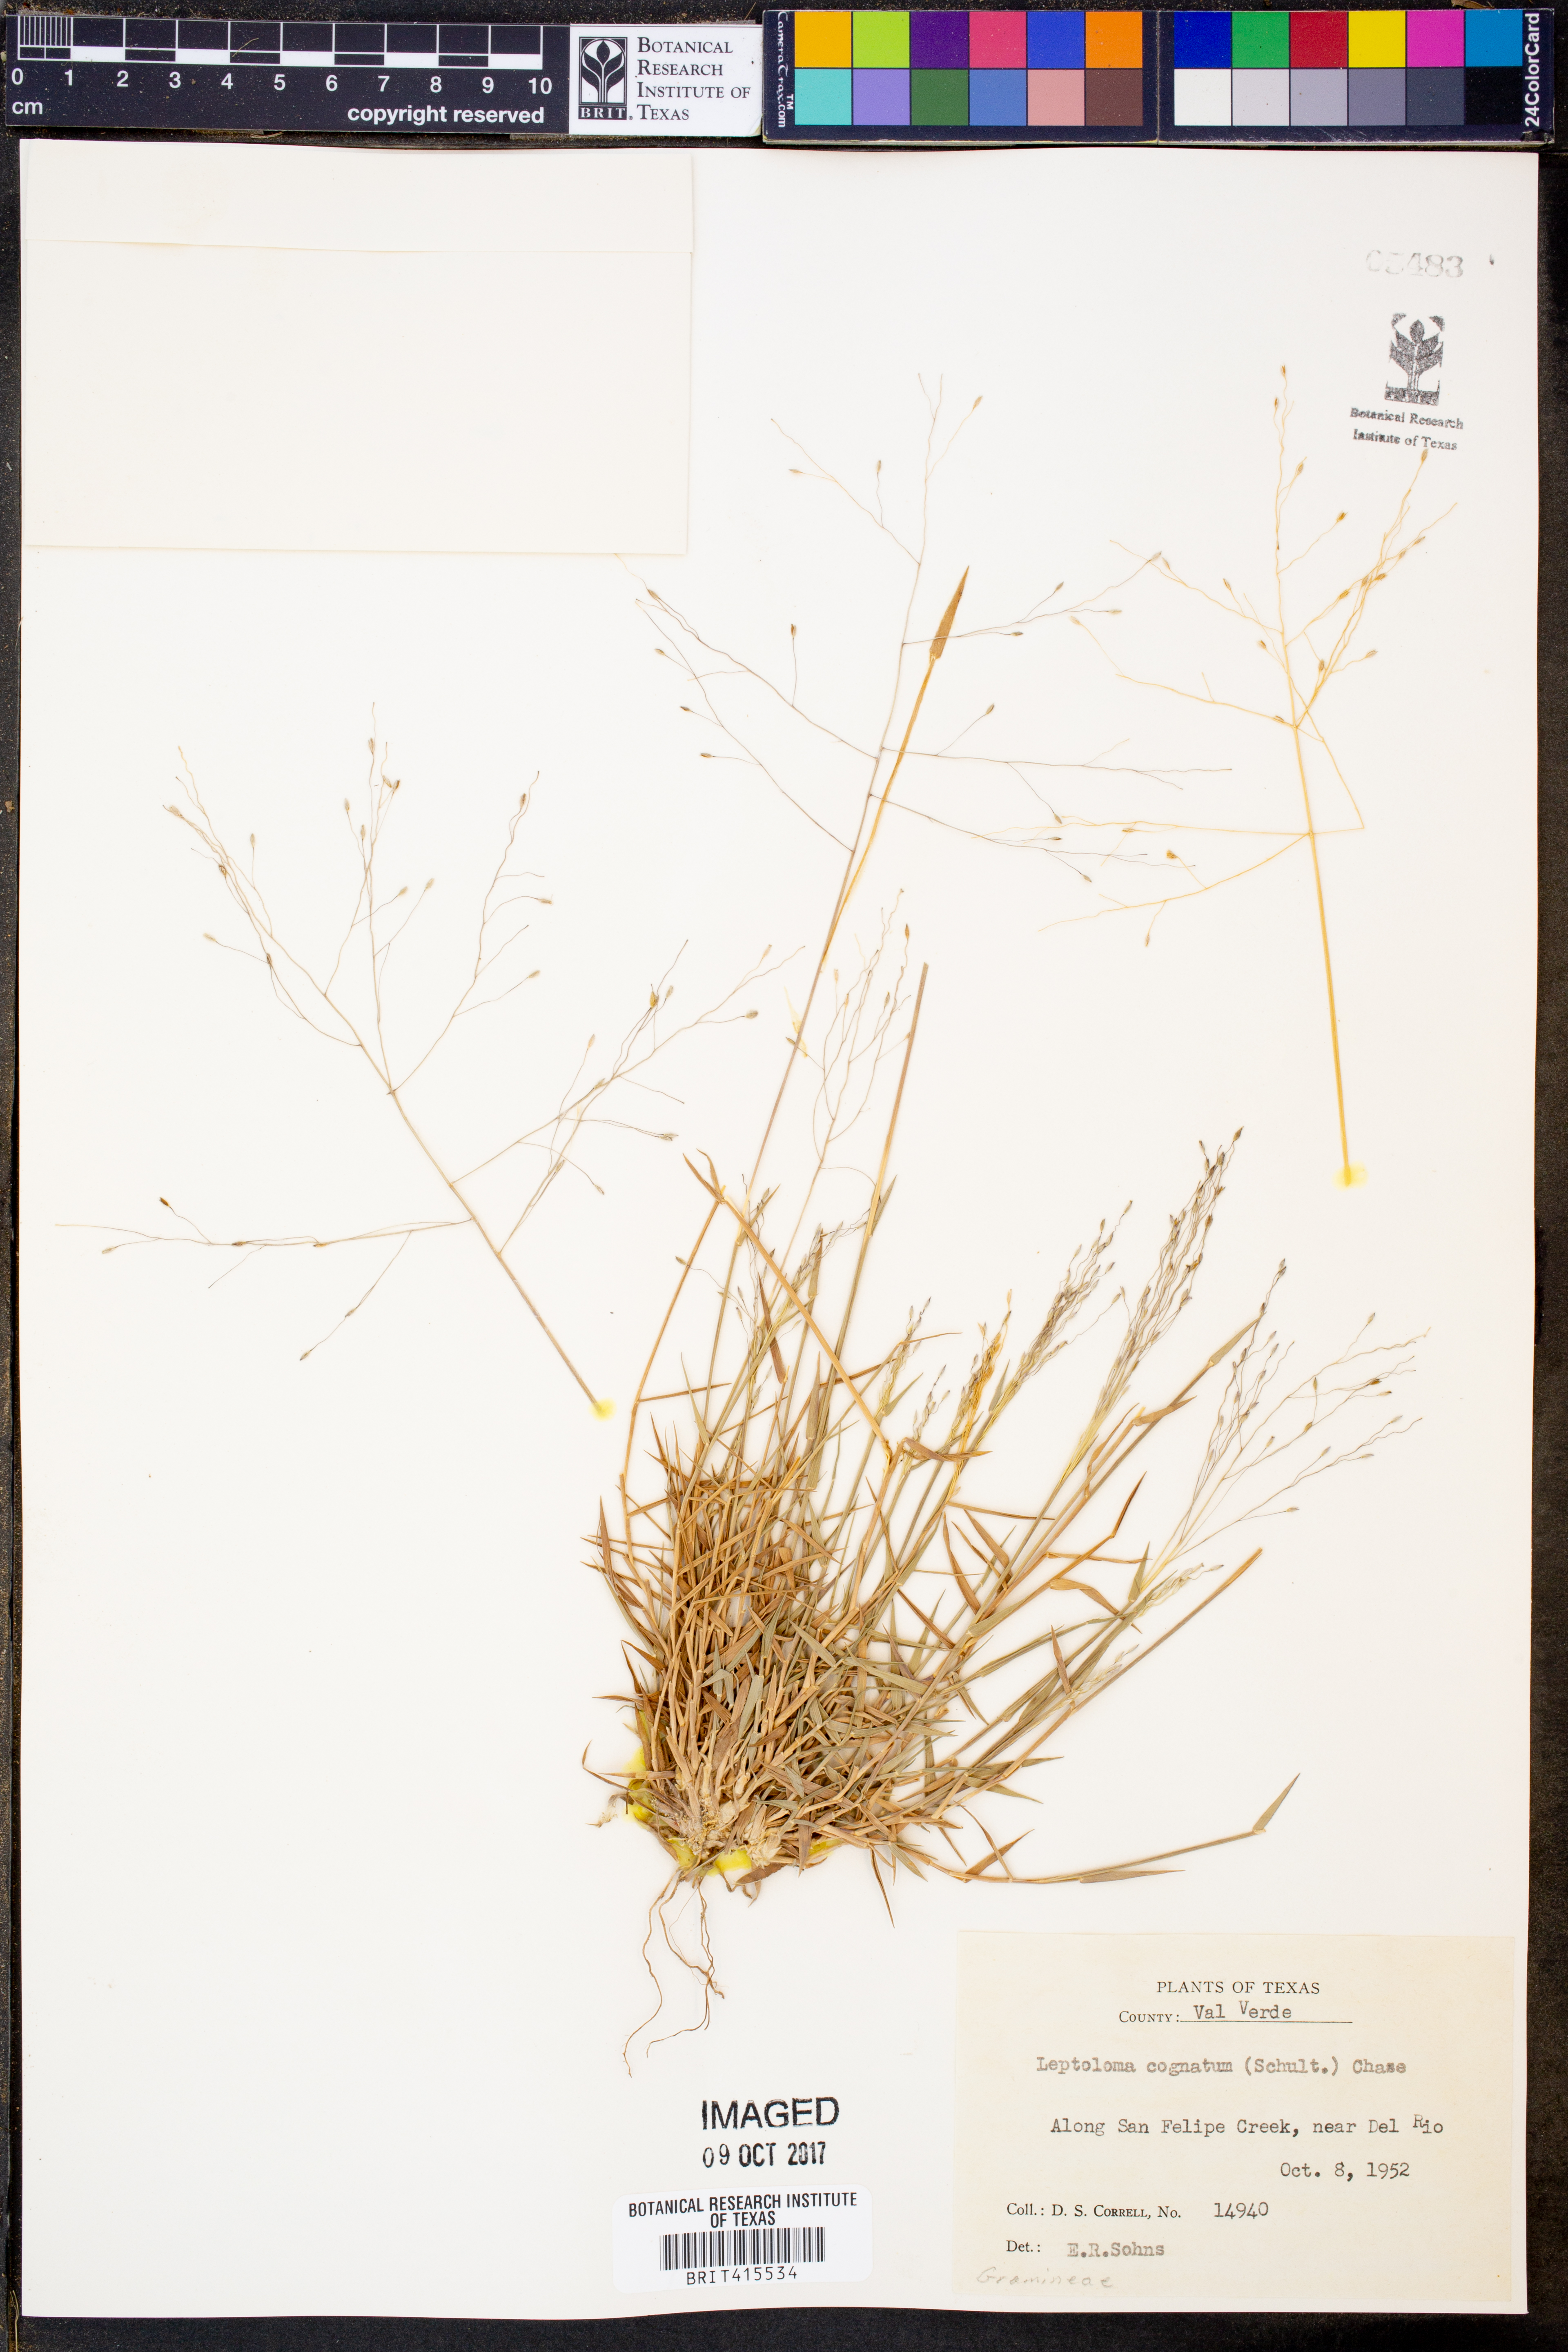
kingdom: Plantae
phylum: Tracheophyta
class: Liliopsida
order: Poales
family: Poaceae
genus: Digitaria
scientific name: Digitaria cognata
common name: Fall witchgrass
